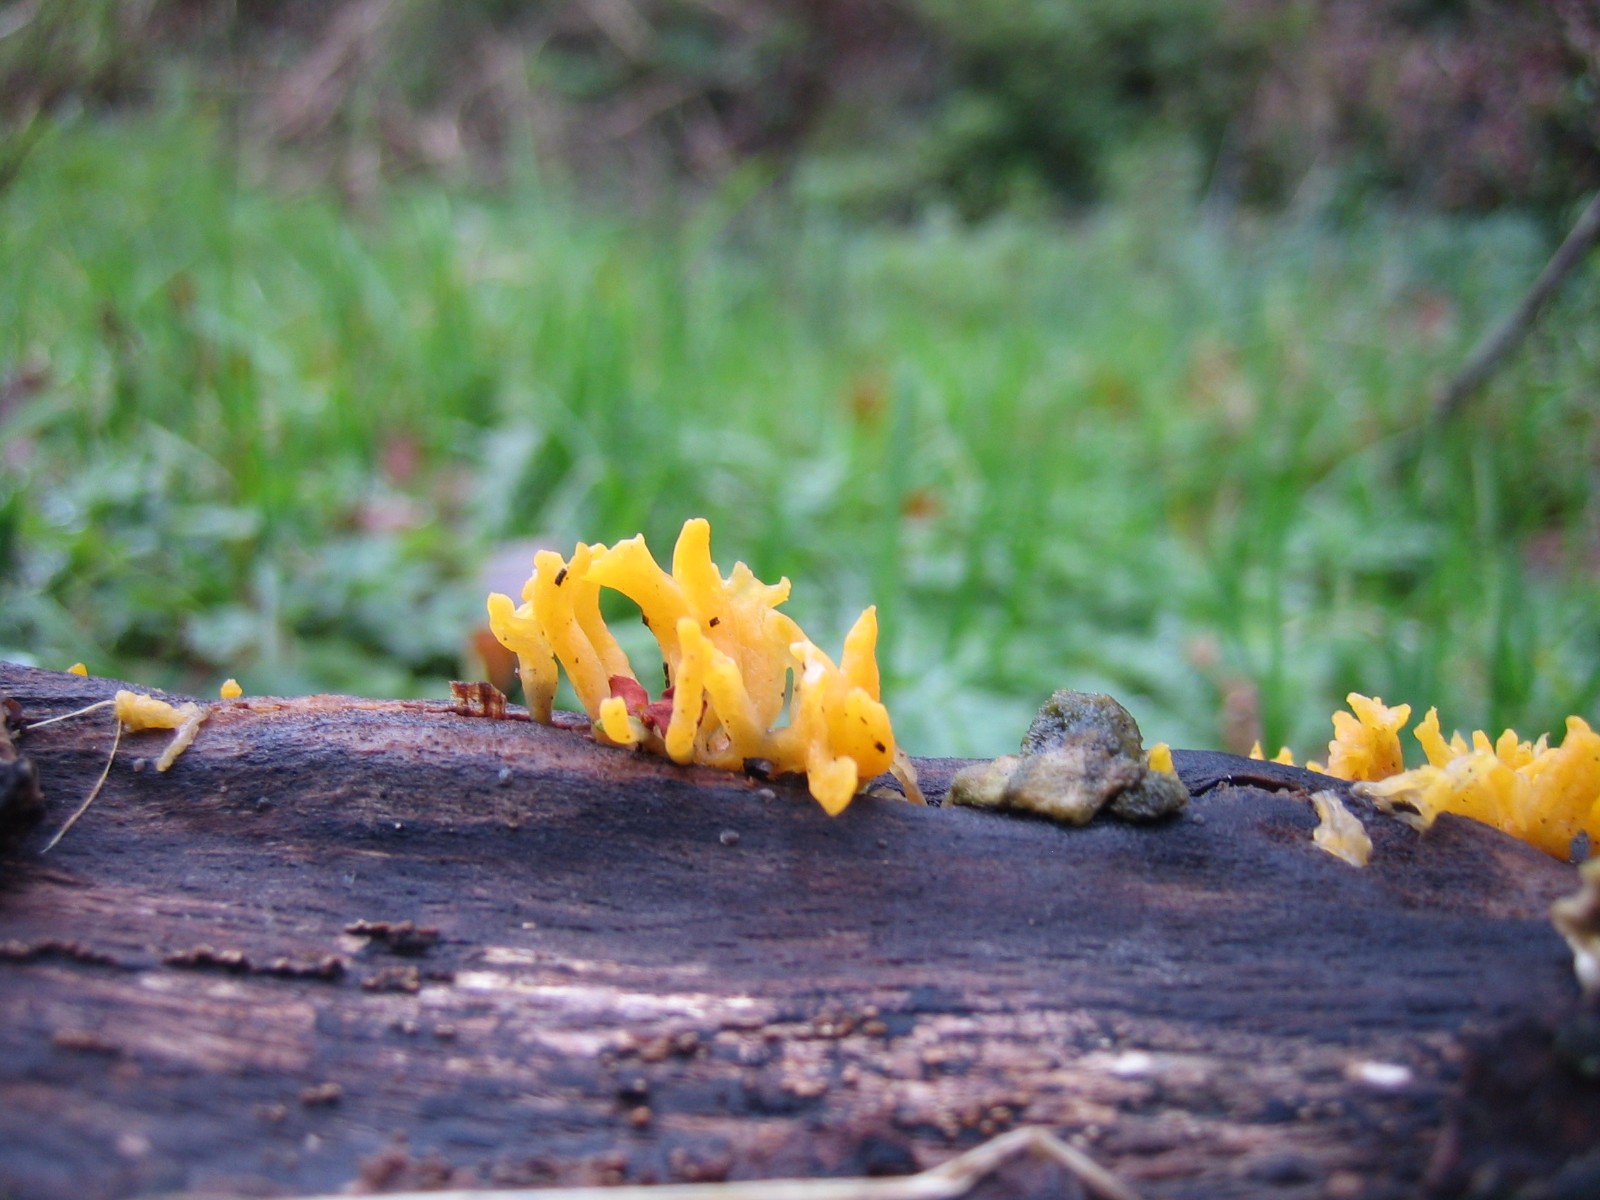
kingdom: Fungi
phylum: Basidiomycota
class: Dacrymycetes
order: Dacrymycetales
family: Dacrymycetaceae
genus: Calocera
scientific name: Calocera cornea
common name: liden guldgaffel
